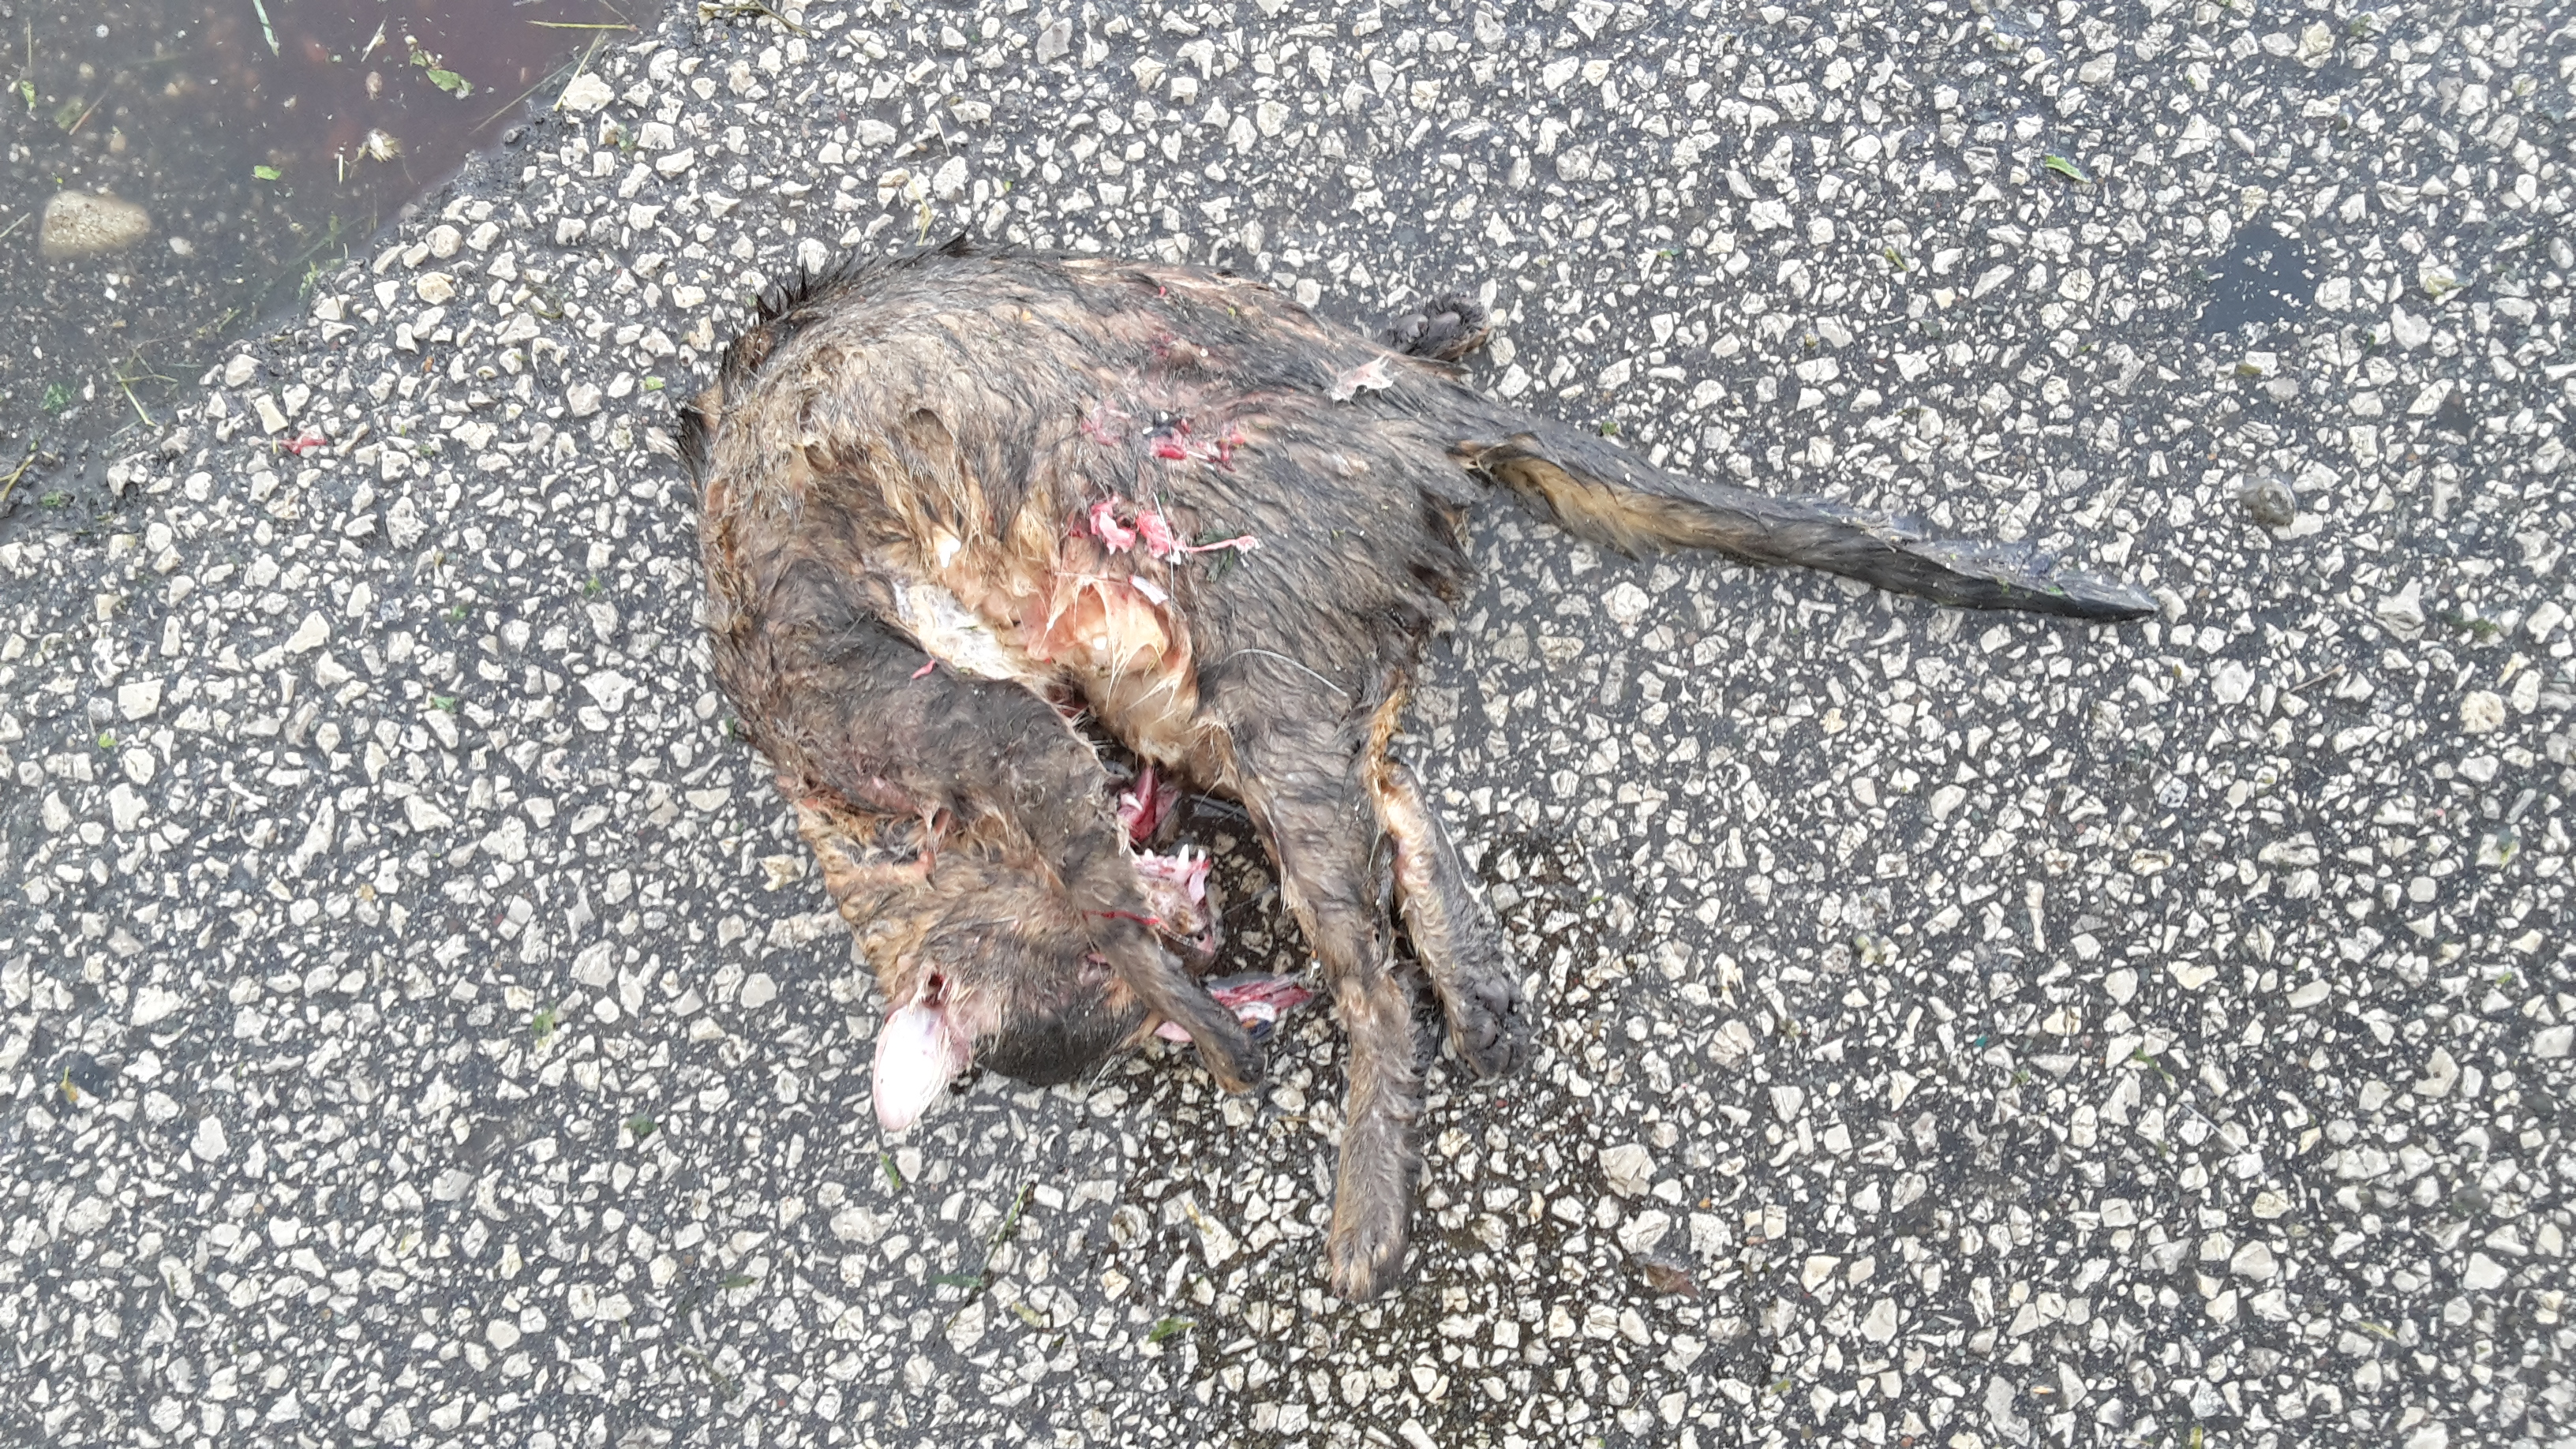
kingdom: Animalia
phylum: Chordata
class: Mammalia
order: Carnivora
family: Felidae
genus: Felis
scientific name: Felis catus
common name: Domestic cat
